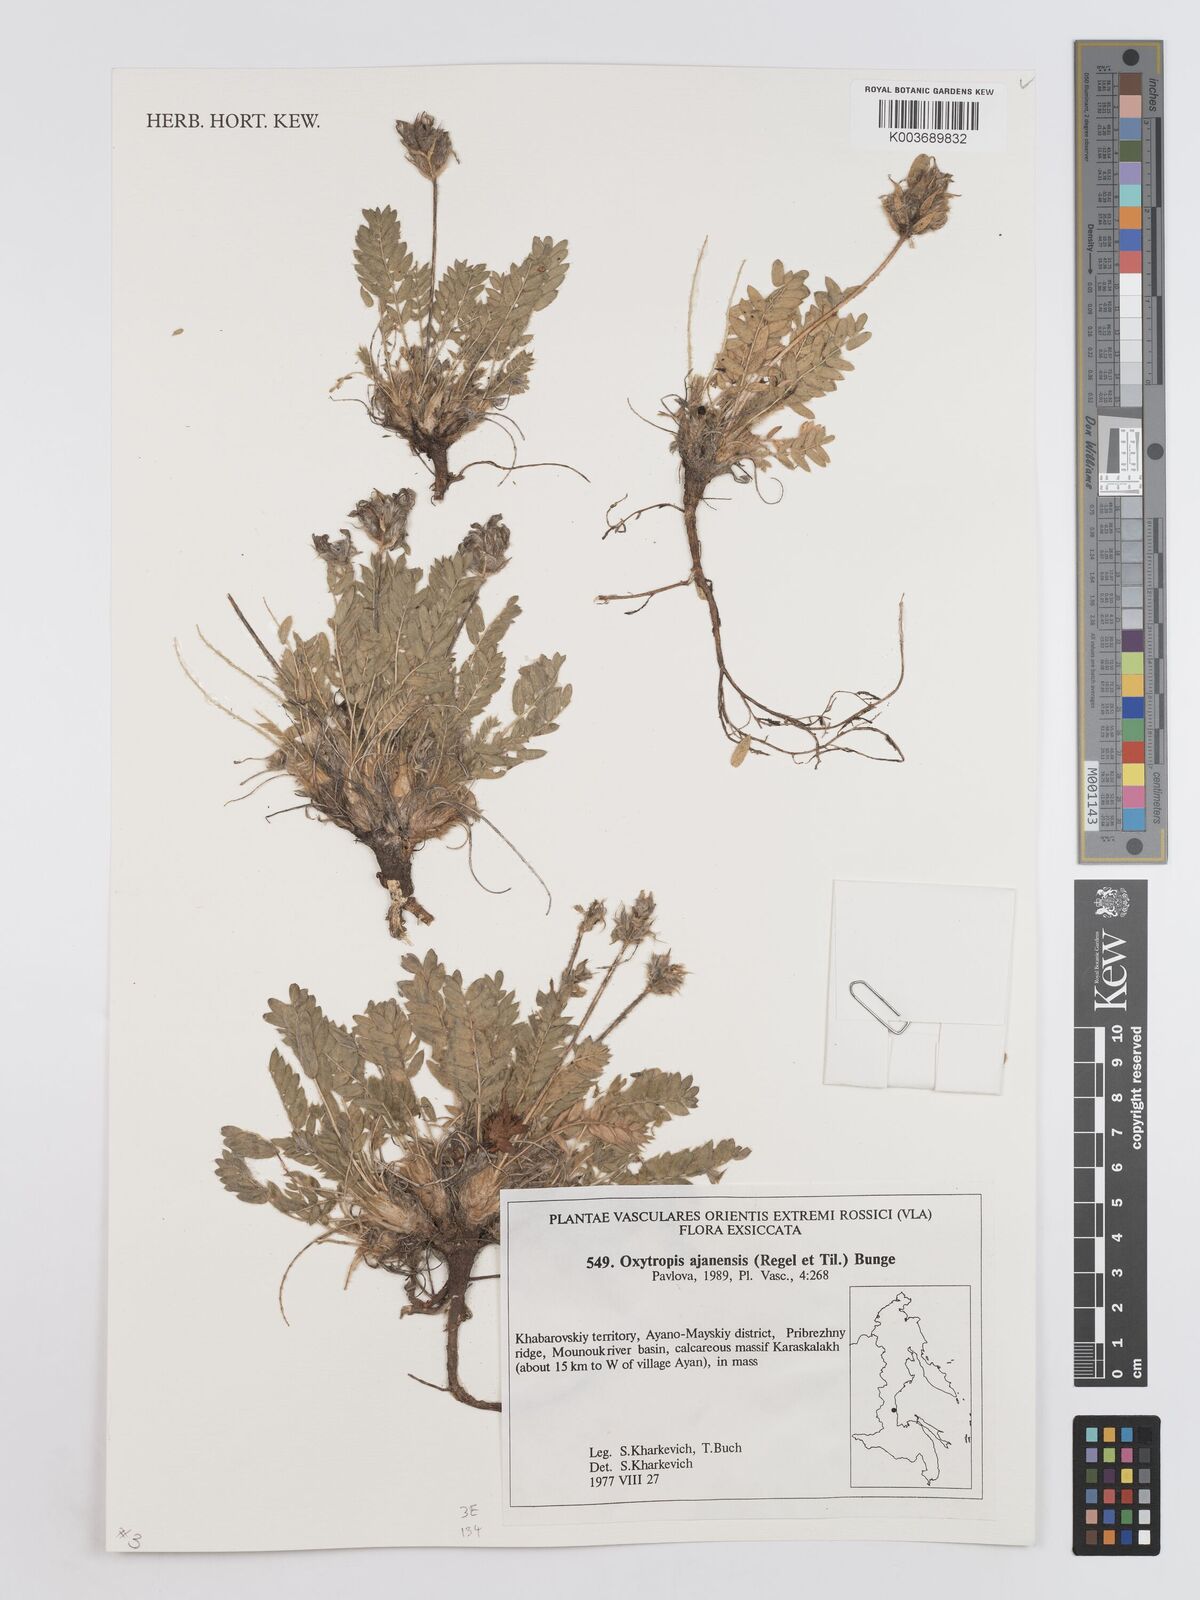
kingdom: Plantae
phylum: Tracheophyta
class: Magnoliopsida
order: Fabales
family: Fabaceae
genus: Oxytropis
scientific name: Oxytropis ajanensis
